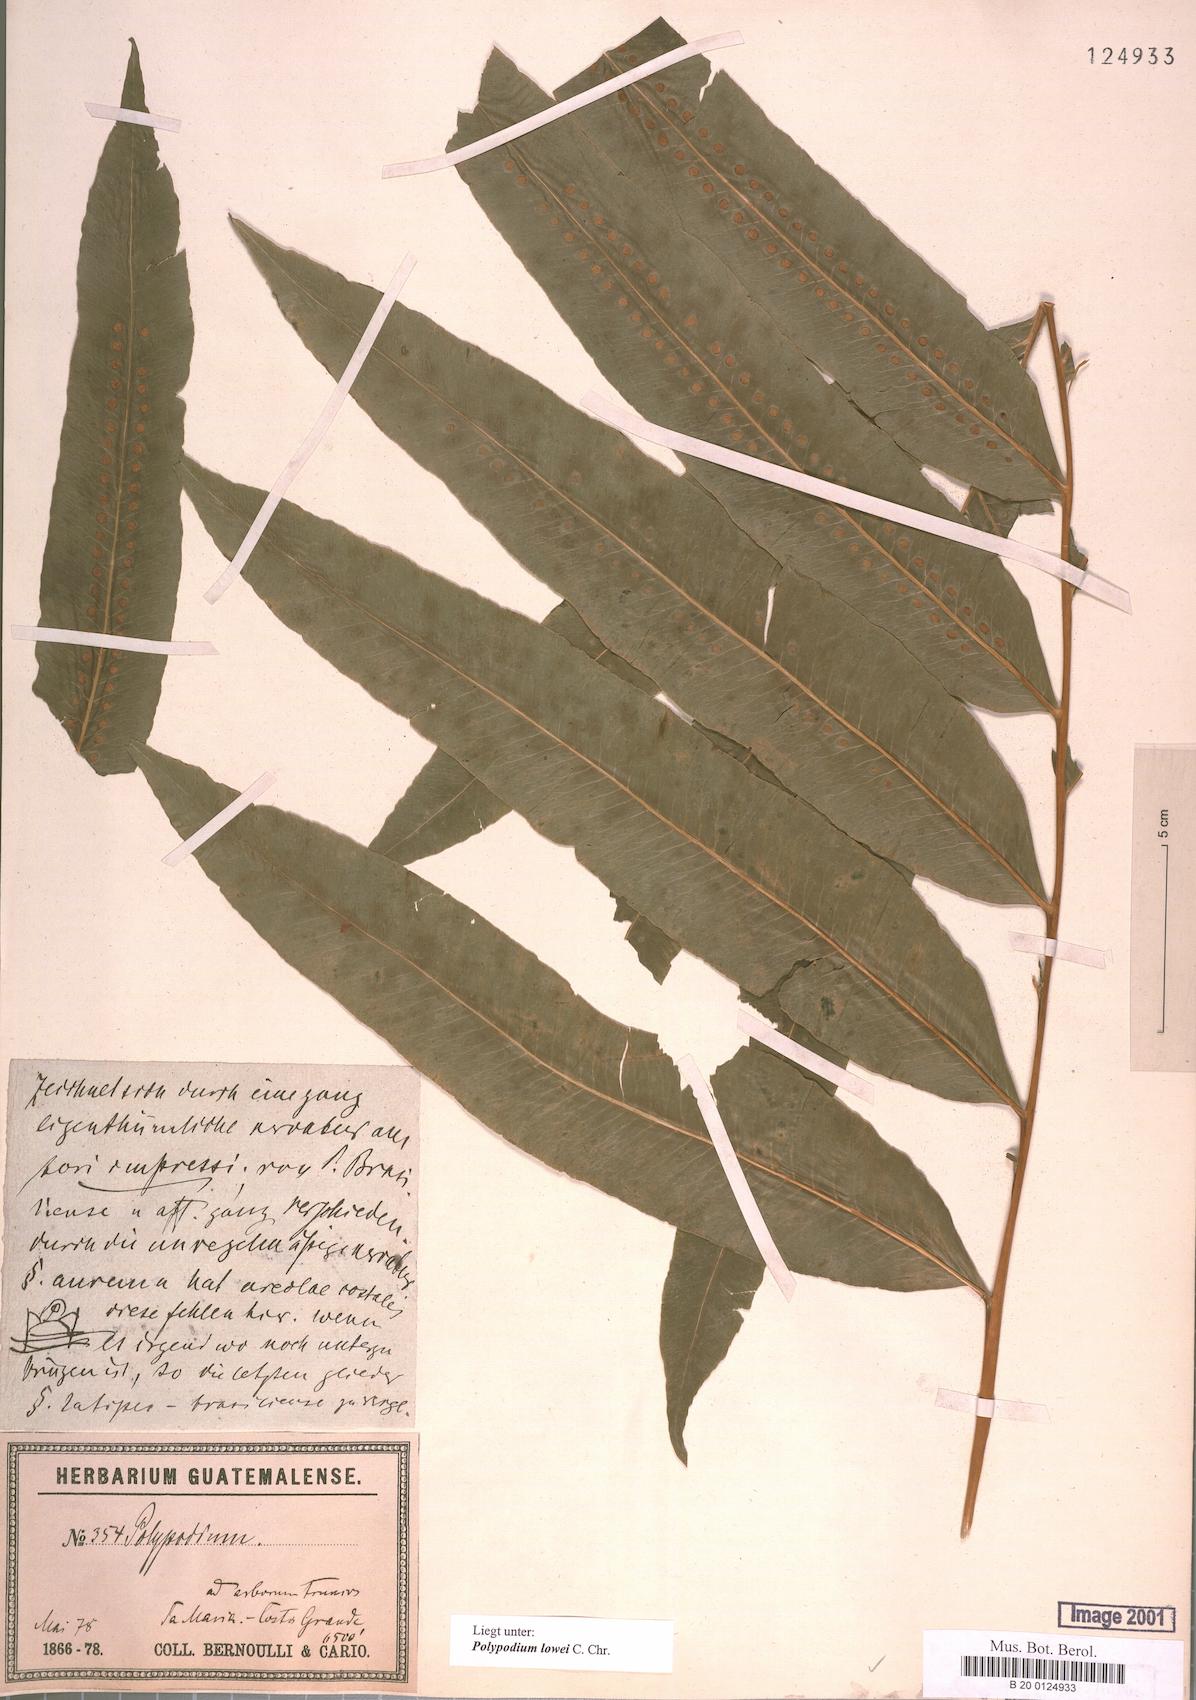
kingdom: Plantae
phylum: Tracheophyta
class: Polypodiopsida
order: Polypodiales
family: Polypodiaceae
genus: Polypodium
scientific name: Polypodium pleurosorum
